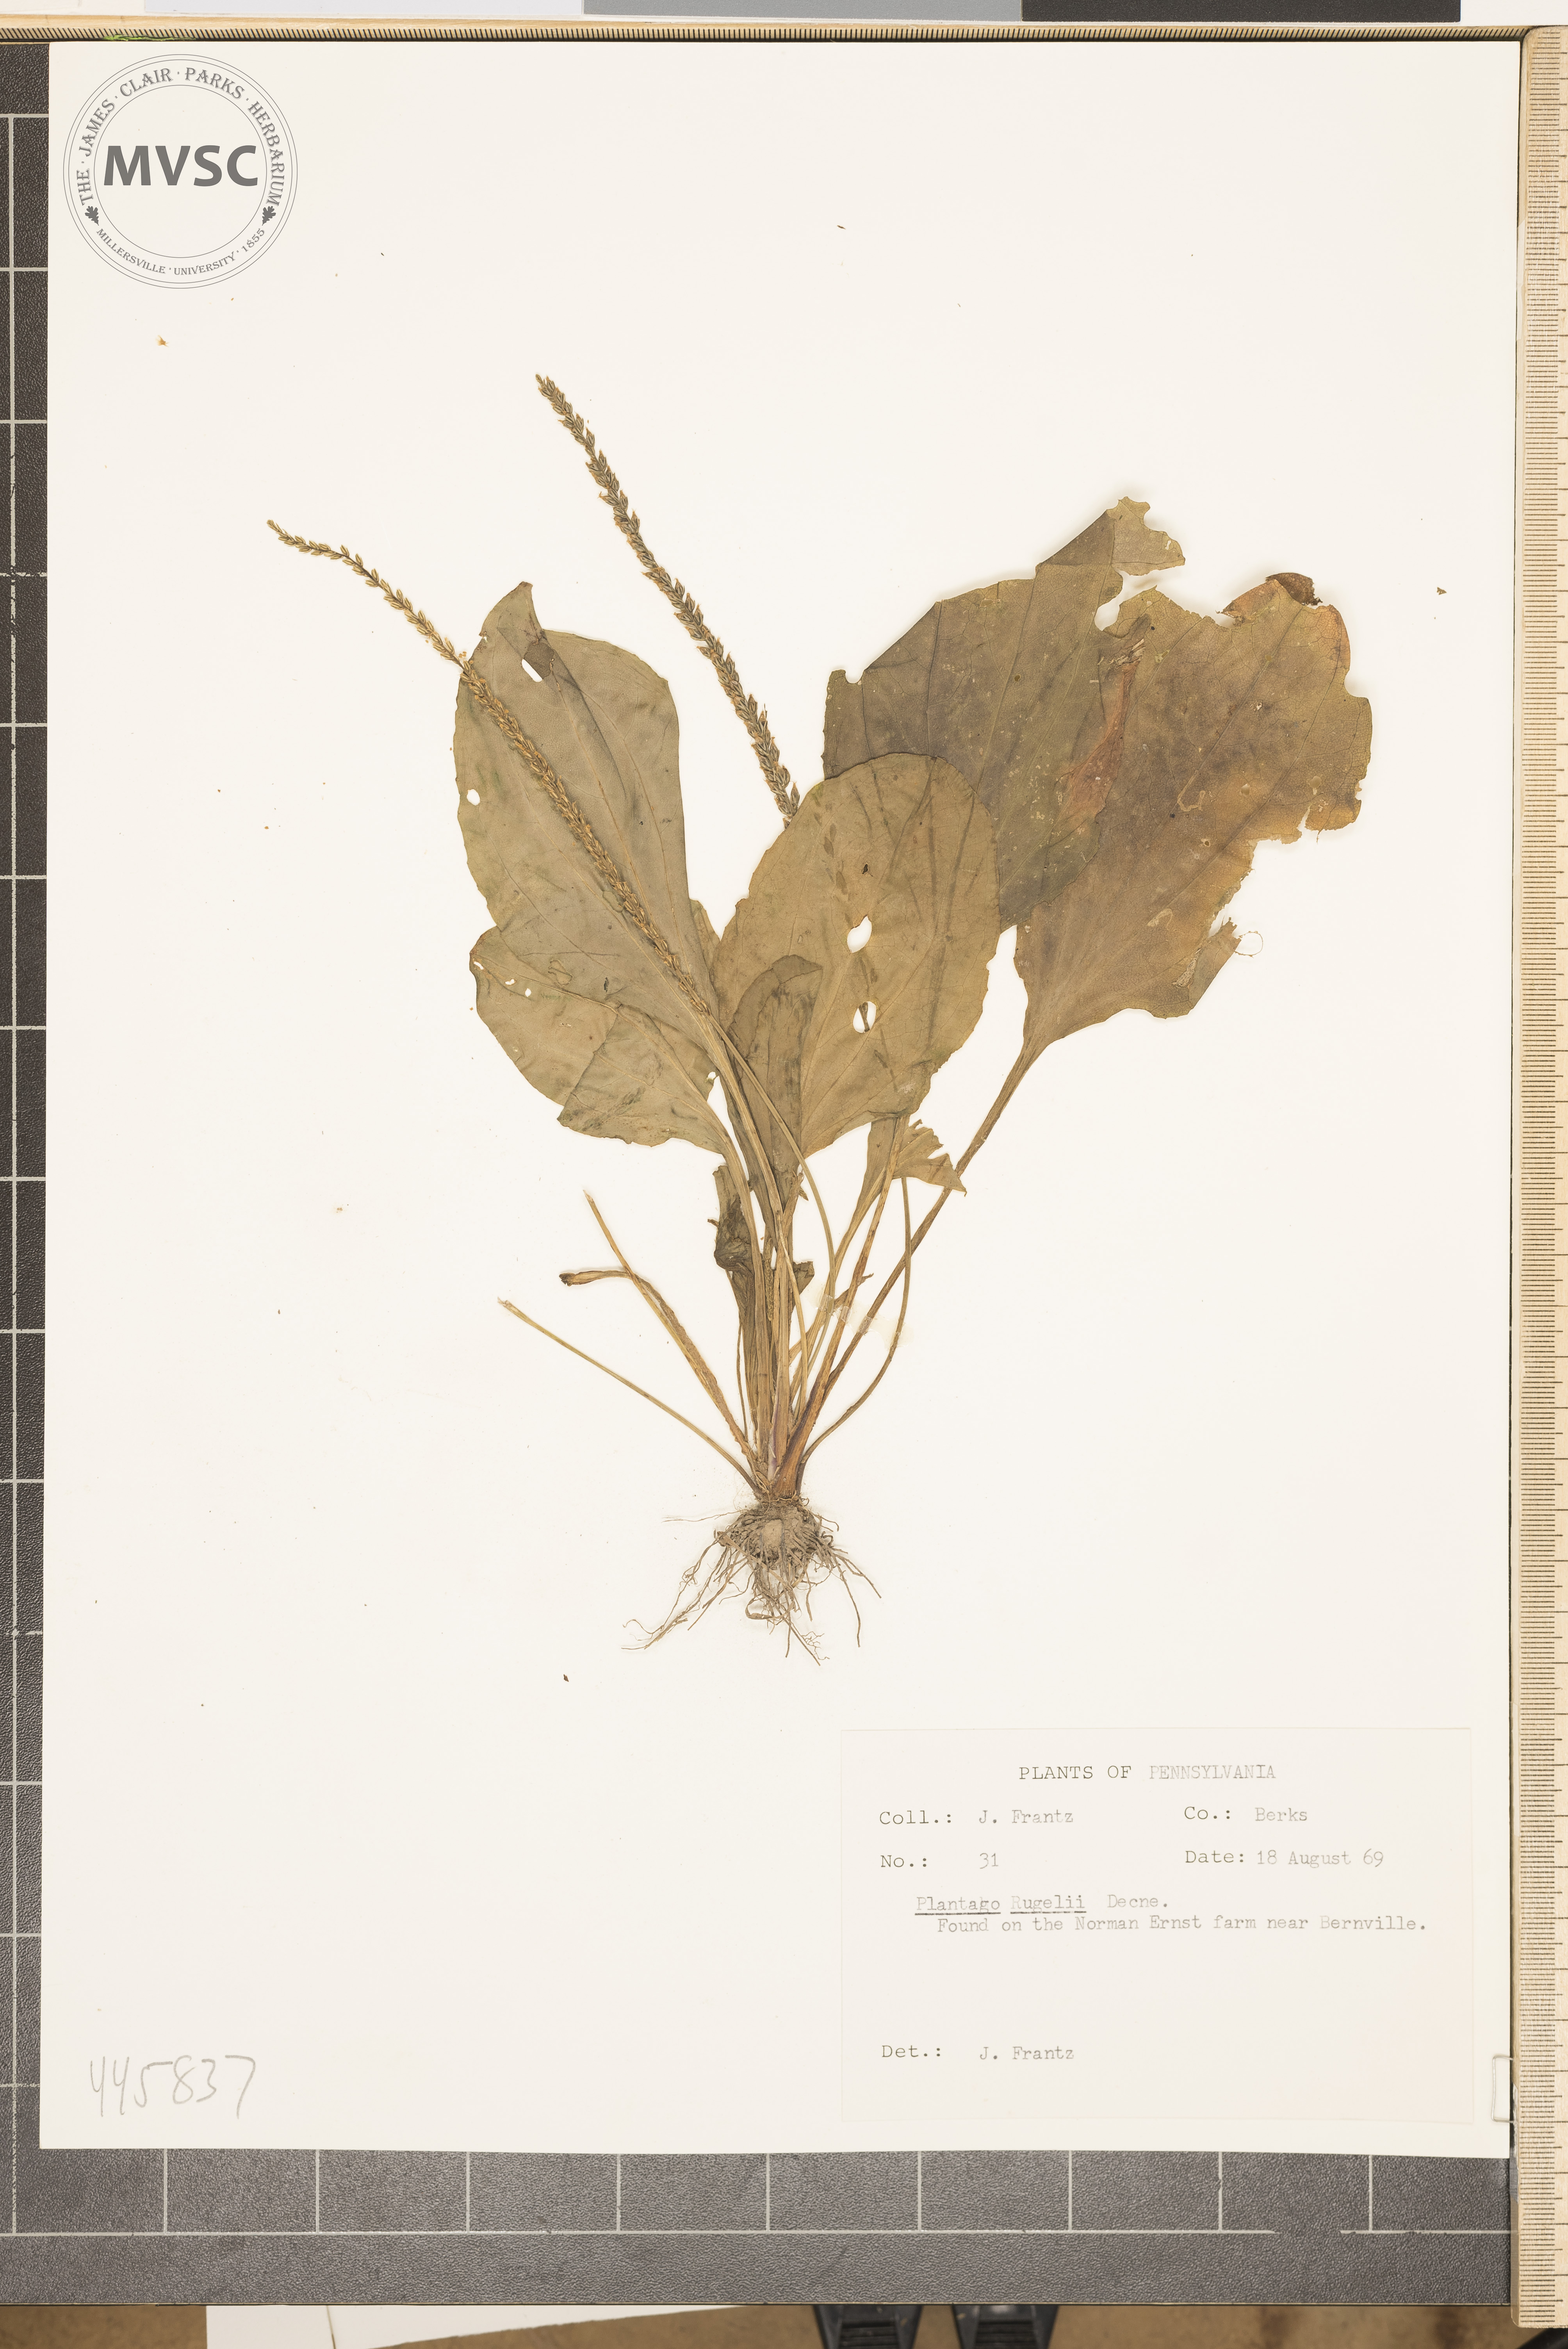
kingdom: Plantae
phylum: Tracheophyta
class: Magnoliopsida
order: Lamiales
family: Plantaginaceae
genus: Plantago
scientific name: Plantago rugelii
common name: American plantain
